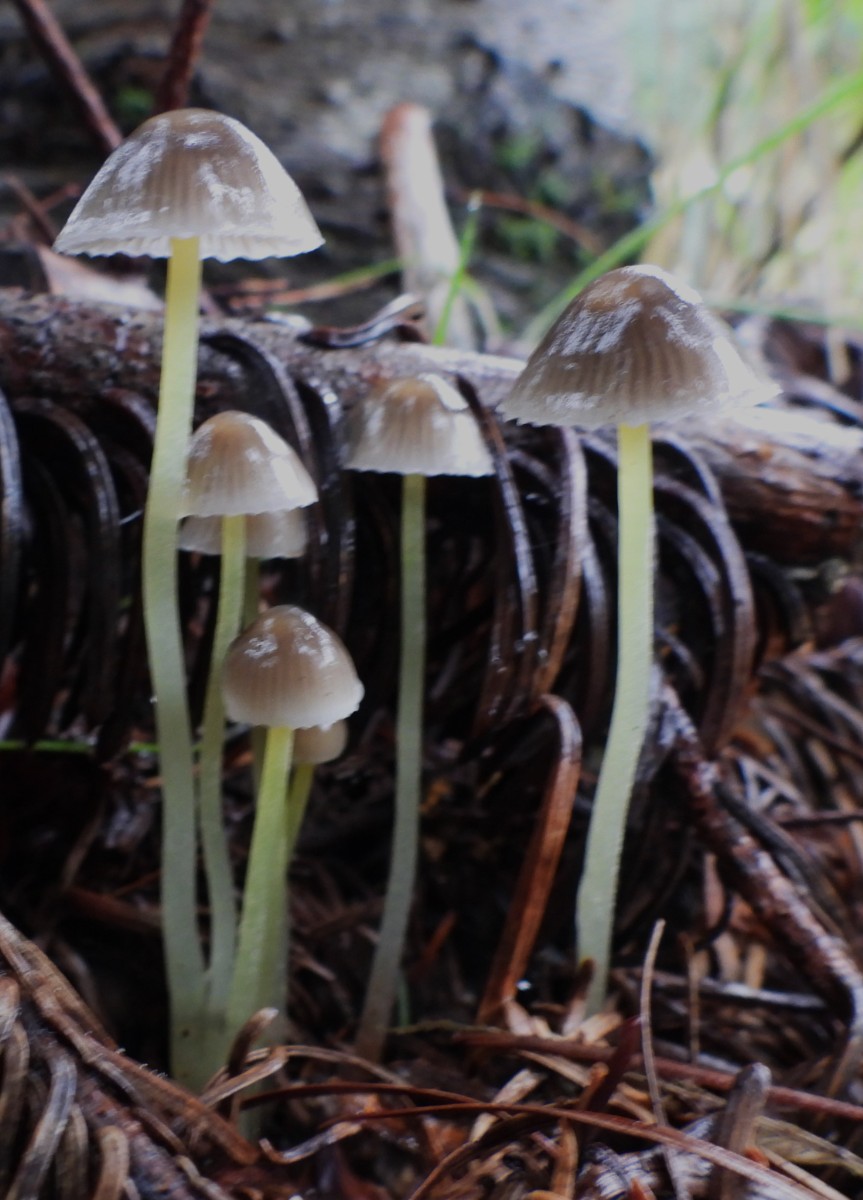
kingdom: Fungi
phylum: Basidiomycota
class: Agaricomycetes
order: Agaricales
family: Mycenaceae
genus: Mycena
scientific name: Mycena epipterygia
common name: gulstokket huesvamp
